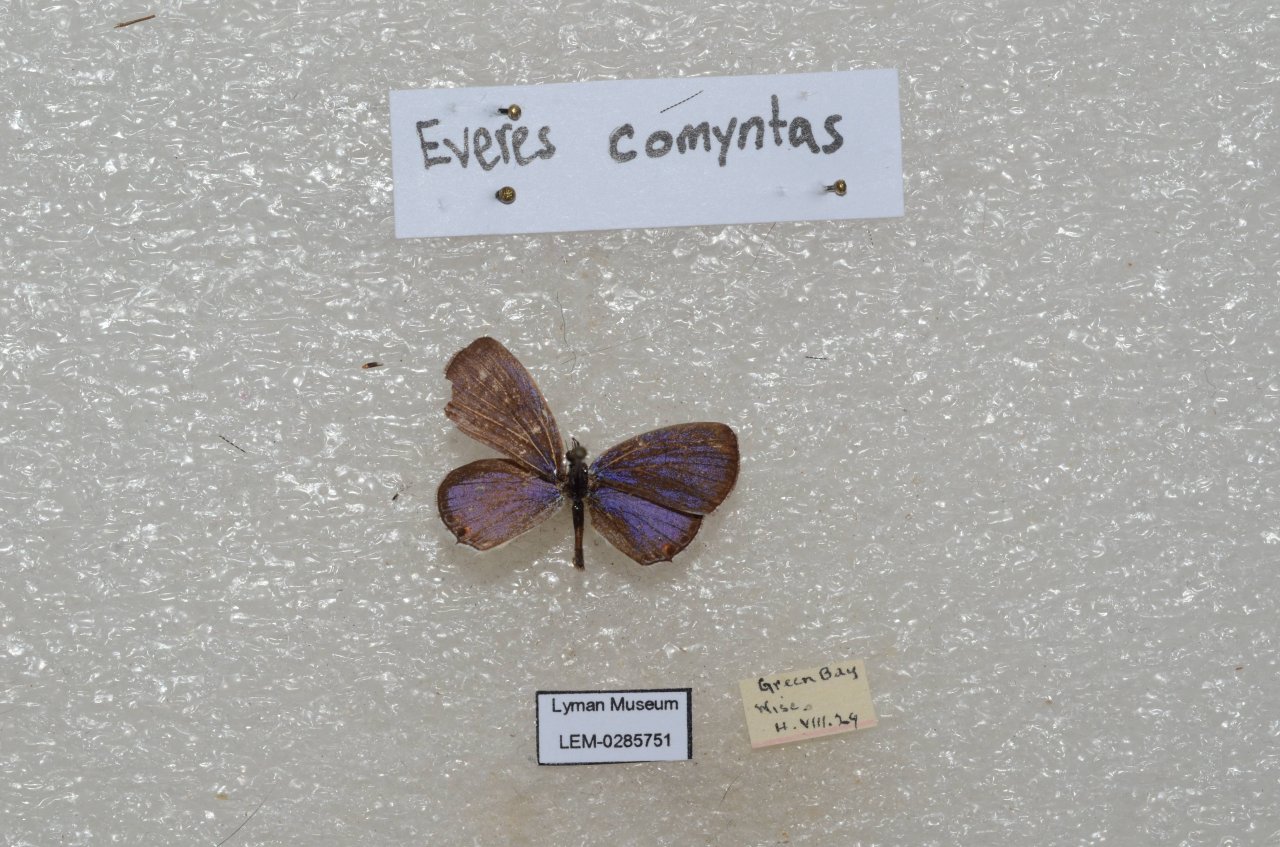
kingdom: Animalia
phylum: Arthropoda
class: Insecta
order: Lepidoptera
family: Lycaenidae
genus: Elkalyce
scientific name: Elkalyce comyntas
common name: Eastern Tailed-Blue
